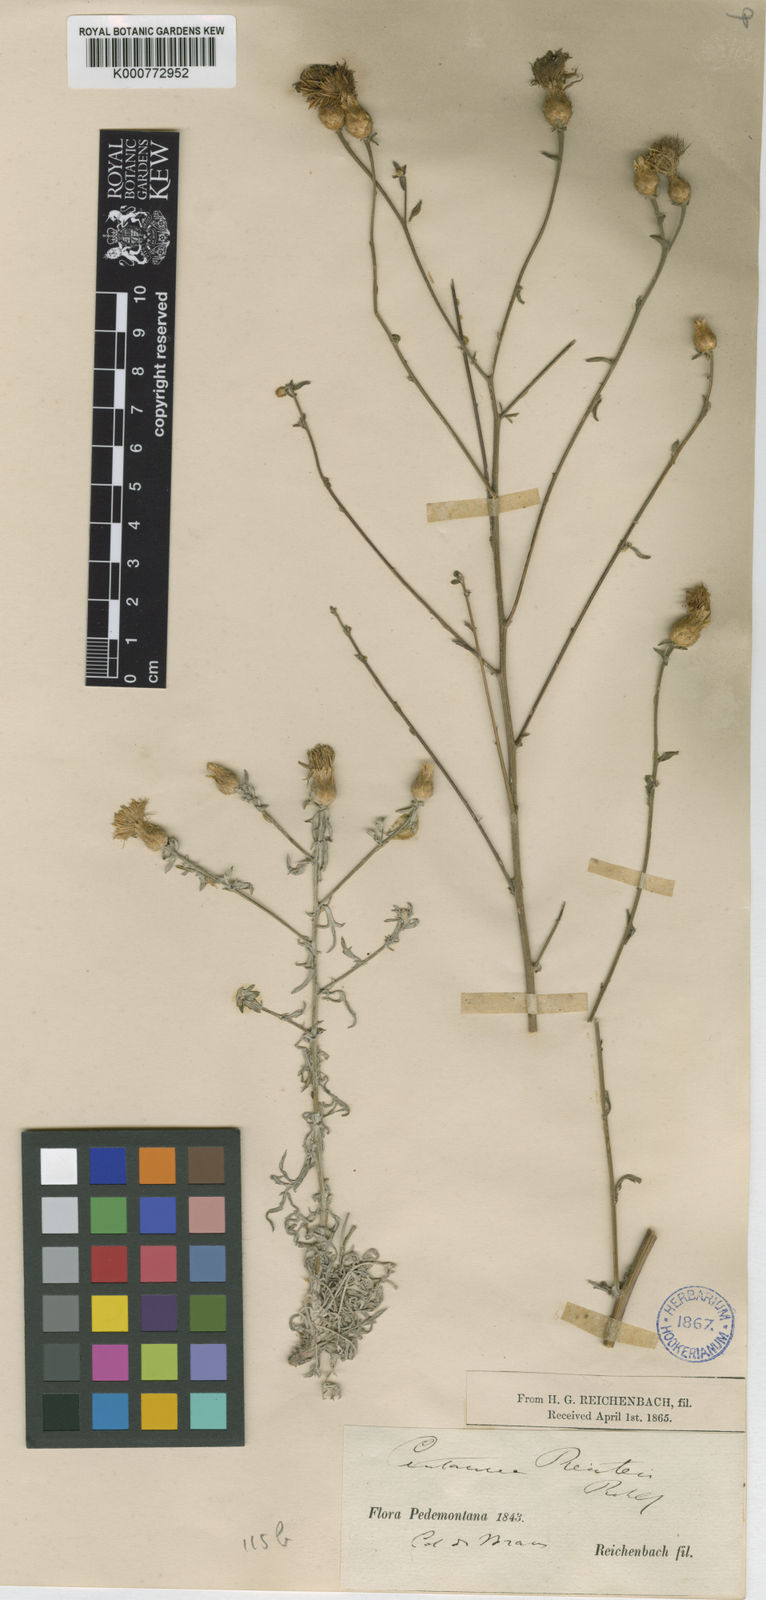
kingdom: Plantae
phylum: Tracheophyta
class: Magnoliopsida
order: Asterales
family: Asteraceae
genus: Centaurea
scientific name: Centaurea leucophaea
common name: Whitish-leaved knapweed
